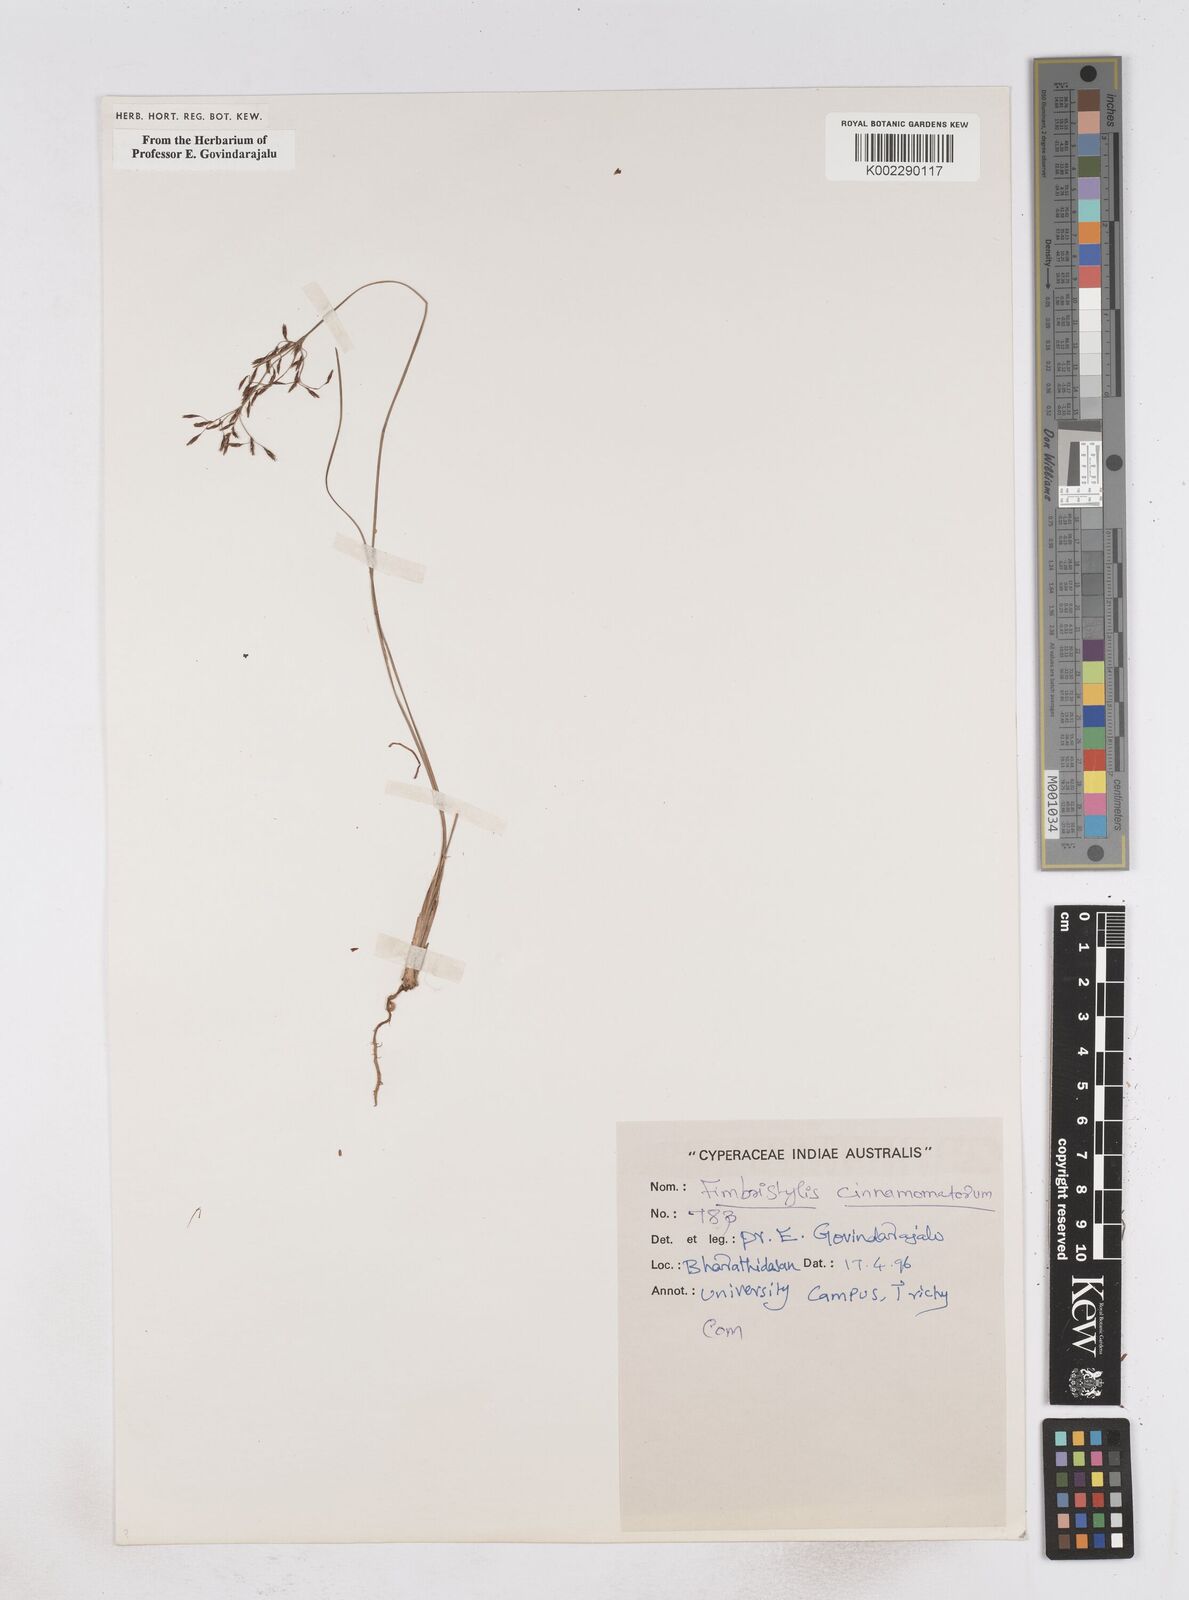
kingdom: Plantae
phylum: Tracheophyta
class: Liliopsida
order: Poales
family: Cyperaceae
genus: Fimbristylis
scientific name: Fimbristylis cinnamometorum
